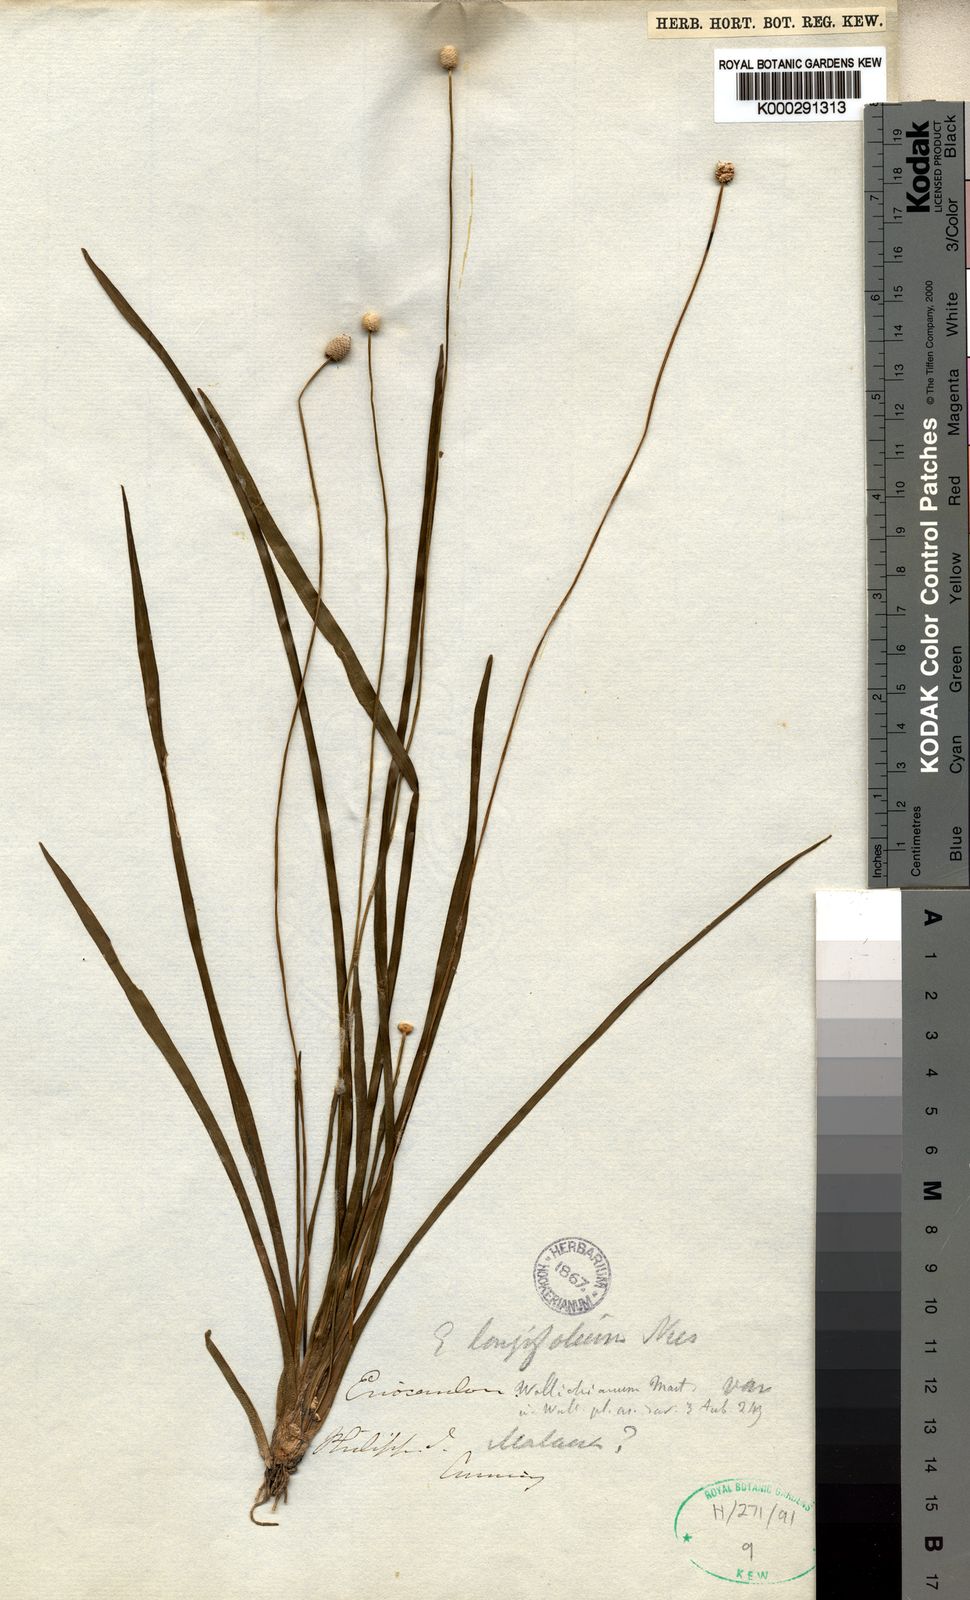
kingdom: Plantae
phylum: Tracheophyta
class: Liliopsida
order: Poales
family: Eriocaulaceae
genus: Eriocaulon
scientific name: Eriocaulon
